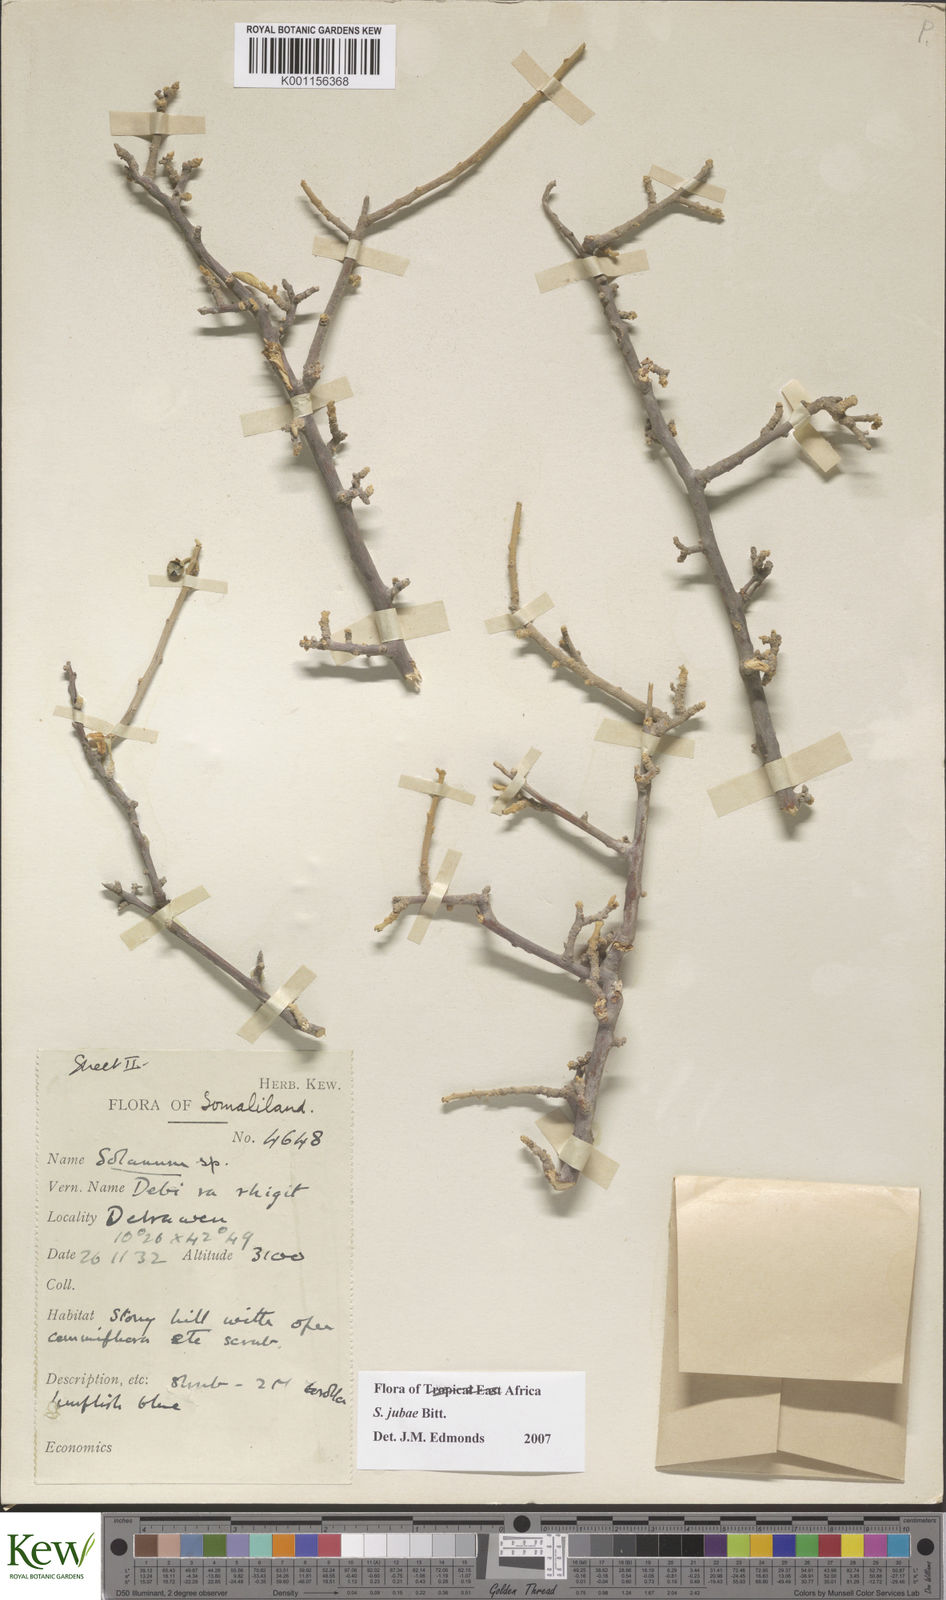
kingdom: Plantae
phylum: Tracheophyta
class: Magnoliopsida
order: Solanales
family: Solanaceae
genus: Solanum
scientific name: Solanum jubae
